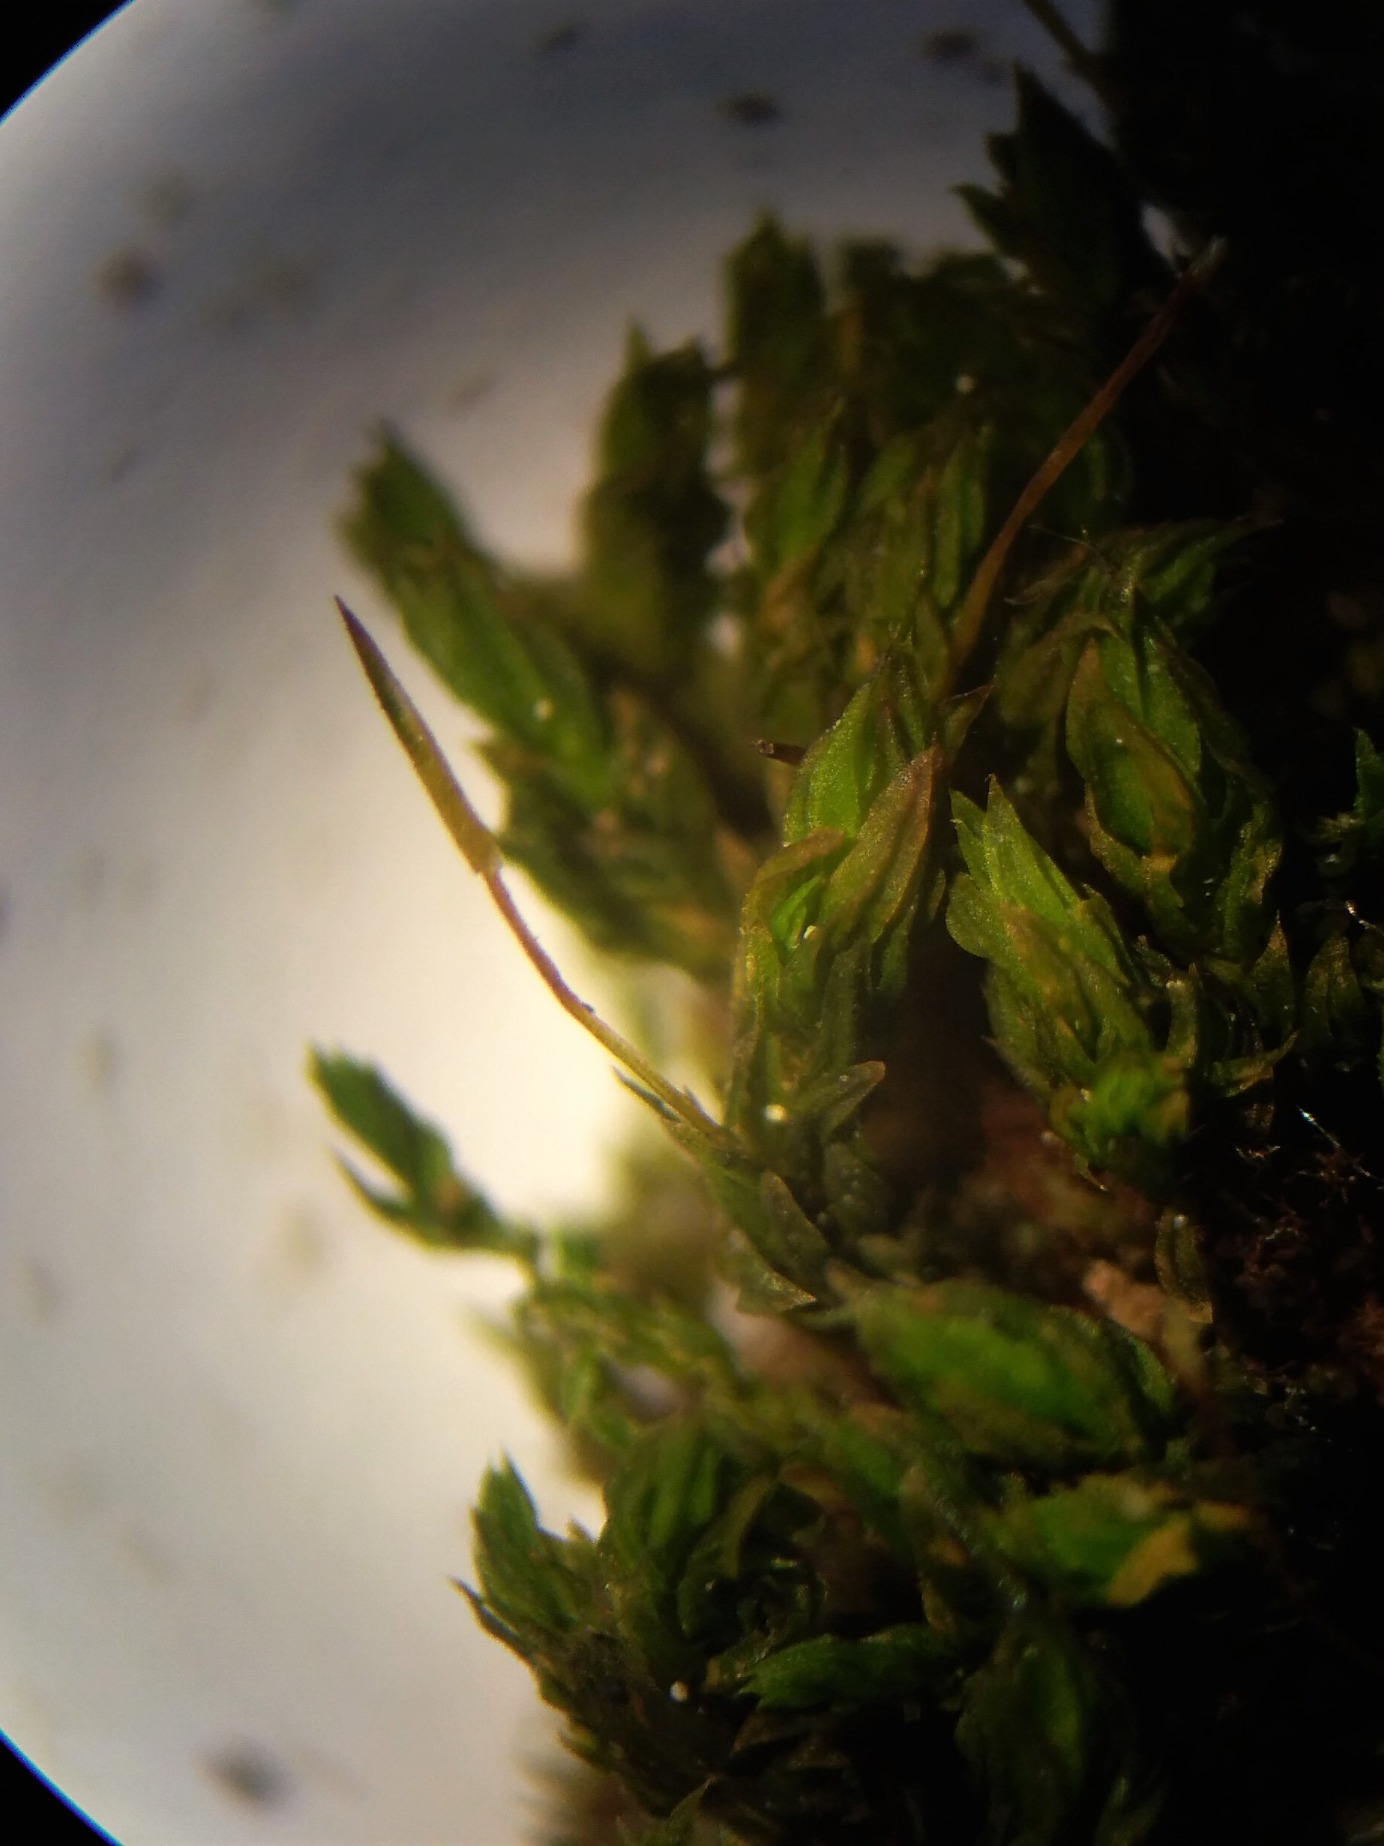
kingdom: Plantae
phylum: Bryophyta
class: Bryopsida
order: Orthotrichales
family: Orthotrichaceae
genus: Zygodon
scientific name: Zygodon conoideus
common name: Tand-køllemos
